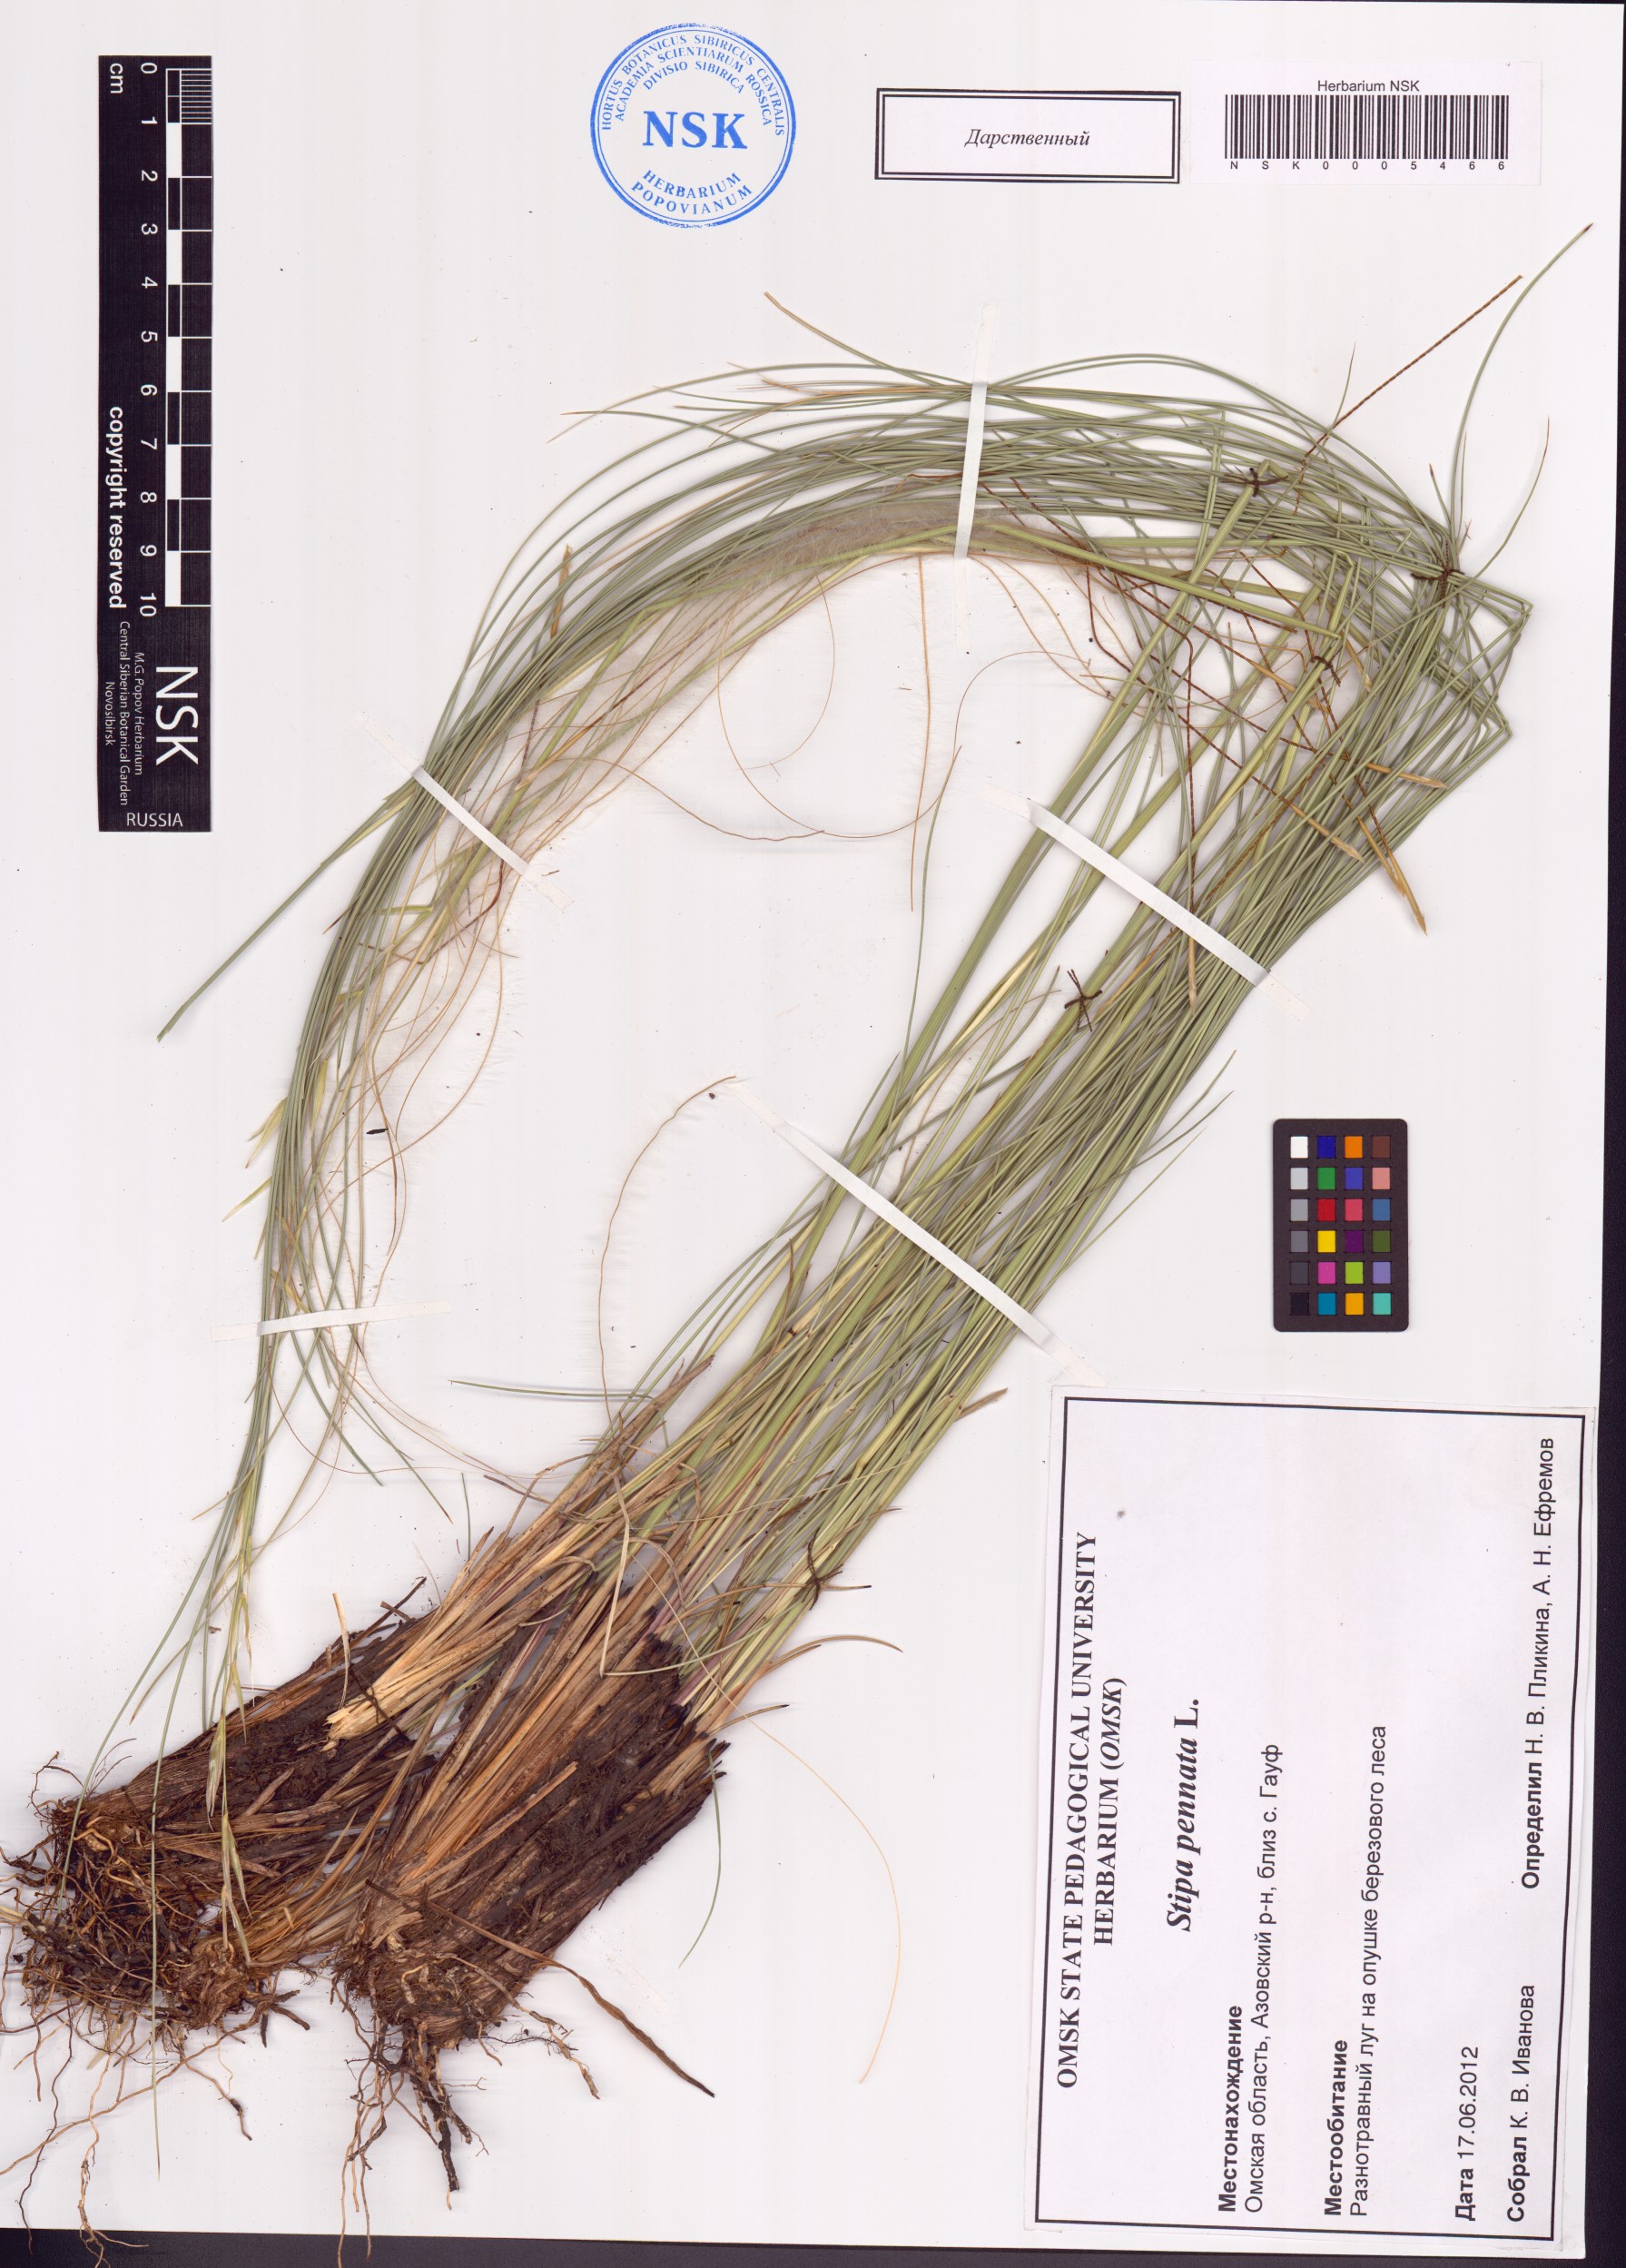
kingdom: Plantae
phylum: Tracheophyta
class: Liliopsida
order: Poales
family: Poaceae
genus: Stipa
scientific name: Stipa pennata
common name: European feather grass
